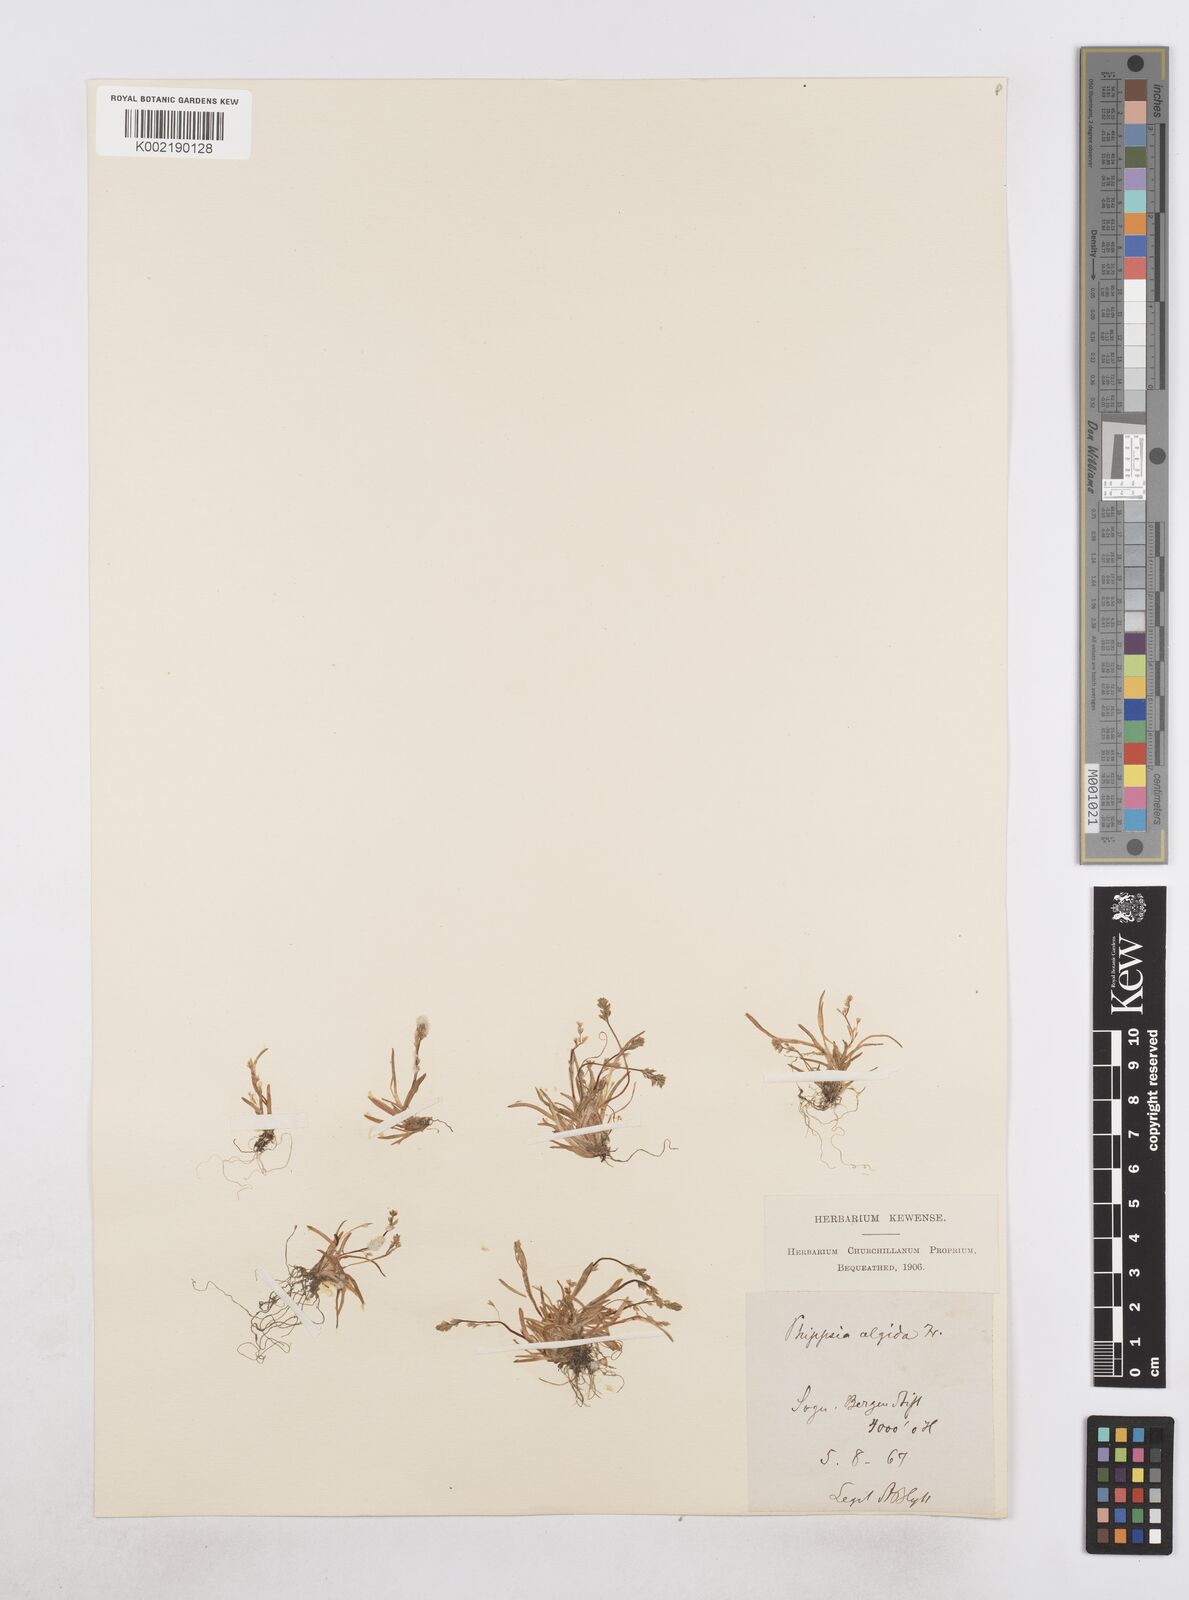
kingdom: Plantae
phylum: Tracheophyta
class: Liliopsida
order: Poales
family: Poaceae
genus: Phippsia
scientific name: Phippsia algida
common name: Ice grass
